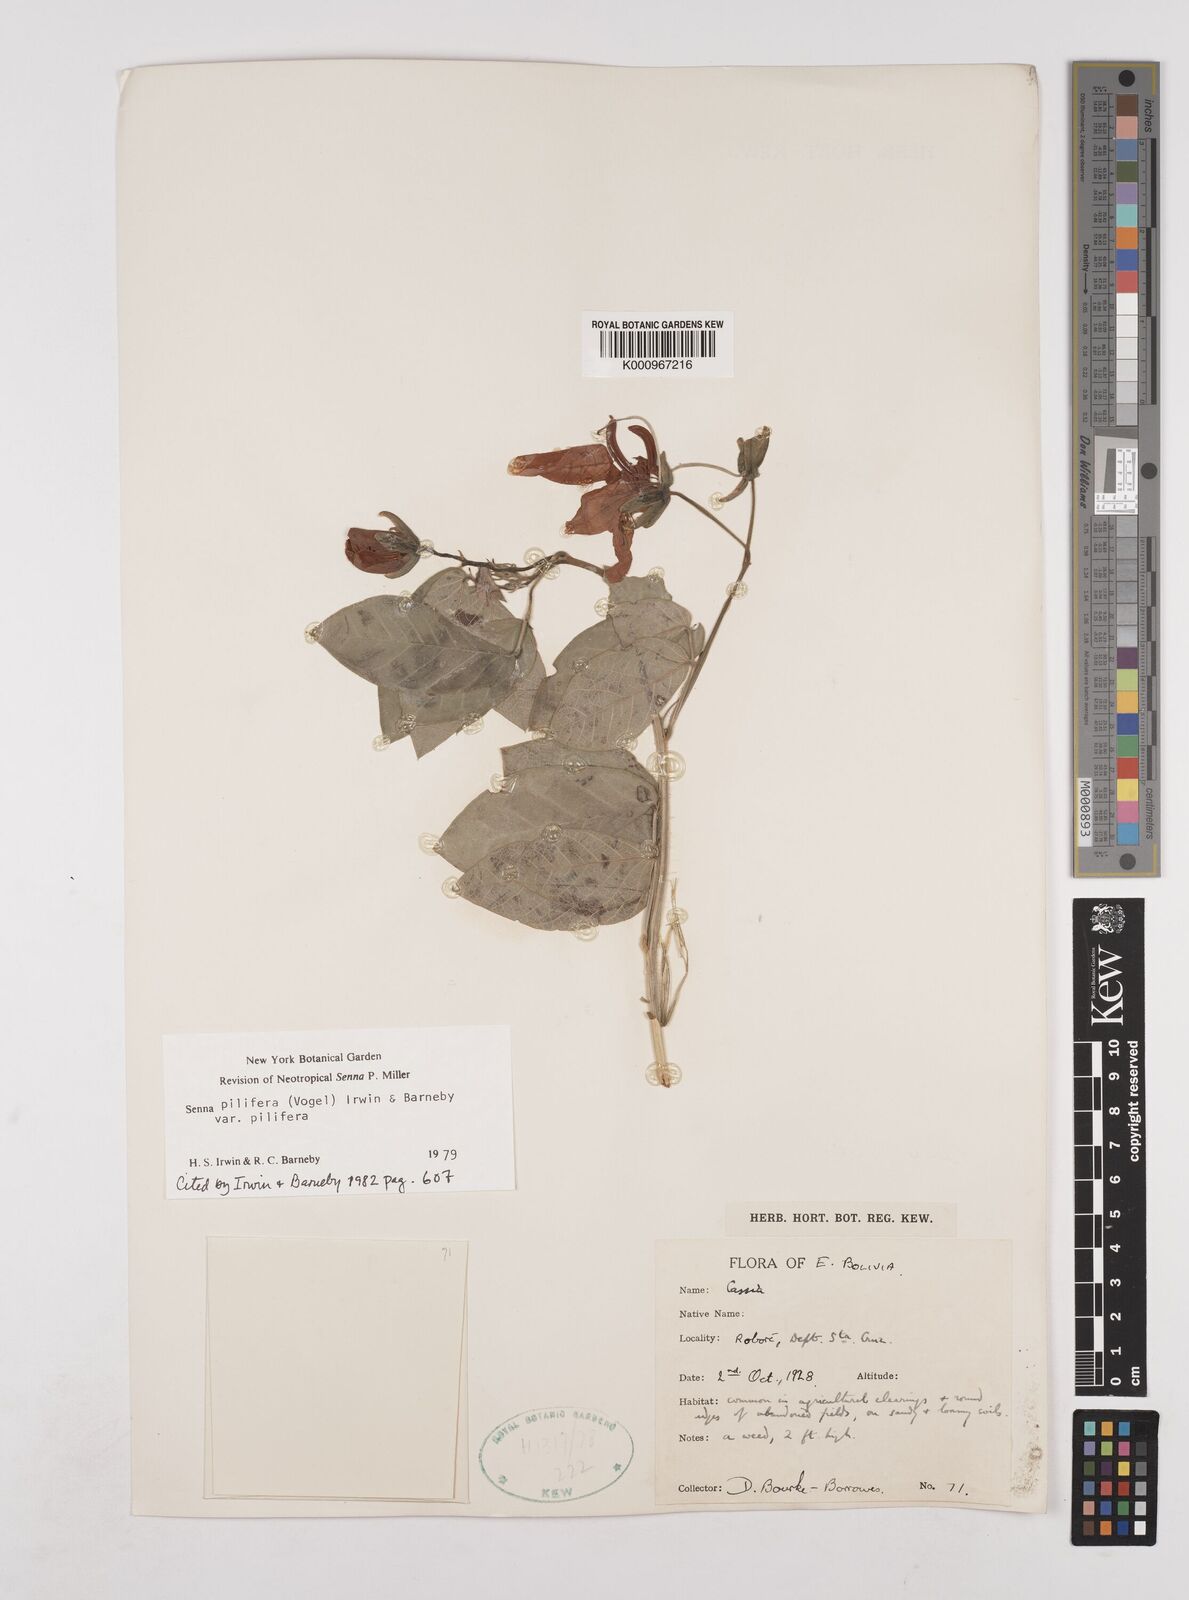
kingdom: Plantae
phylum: Tracheophyta
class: Magnoliopsida
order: Fabales
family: Fabaceae
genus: Senna
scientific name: Senna pilifera
